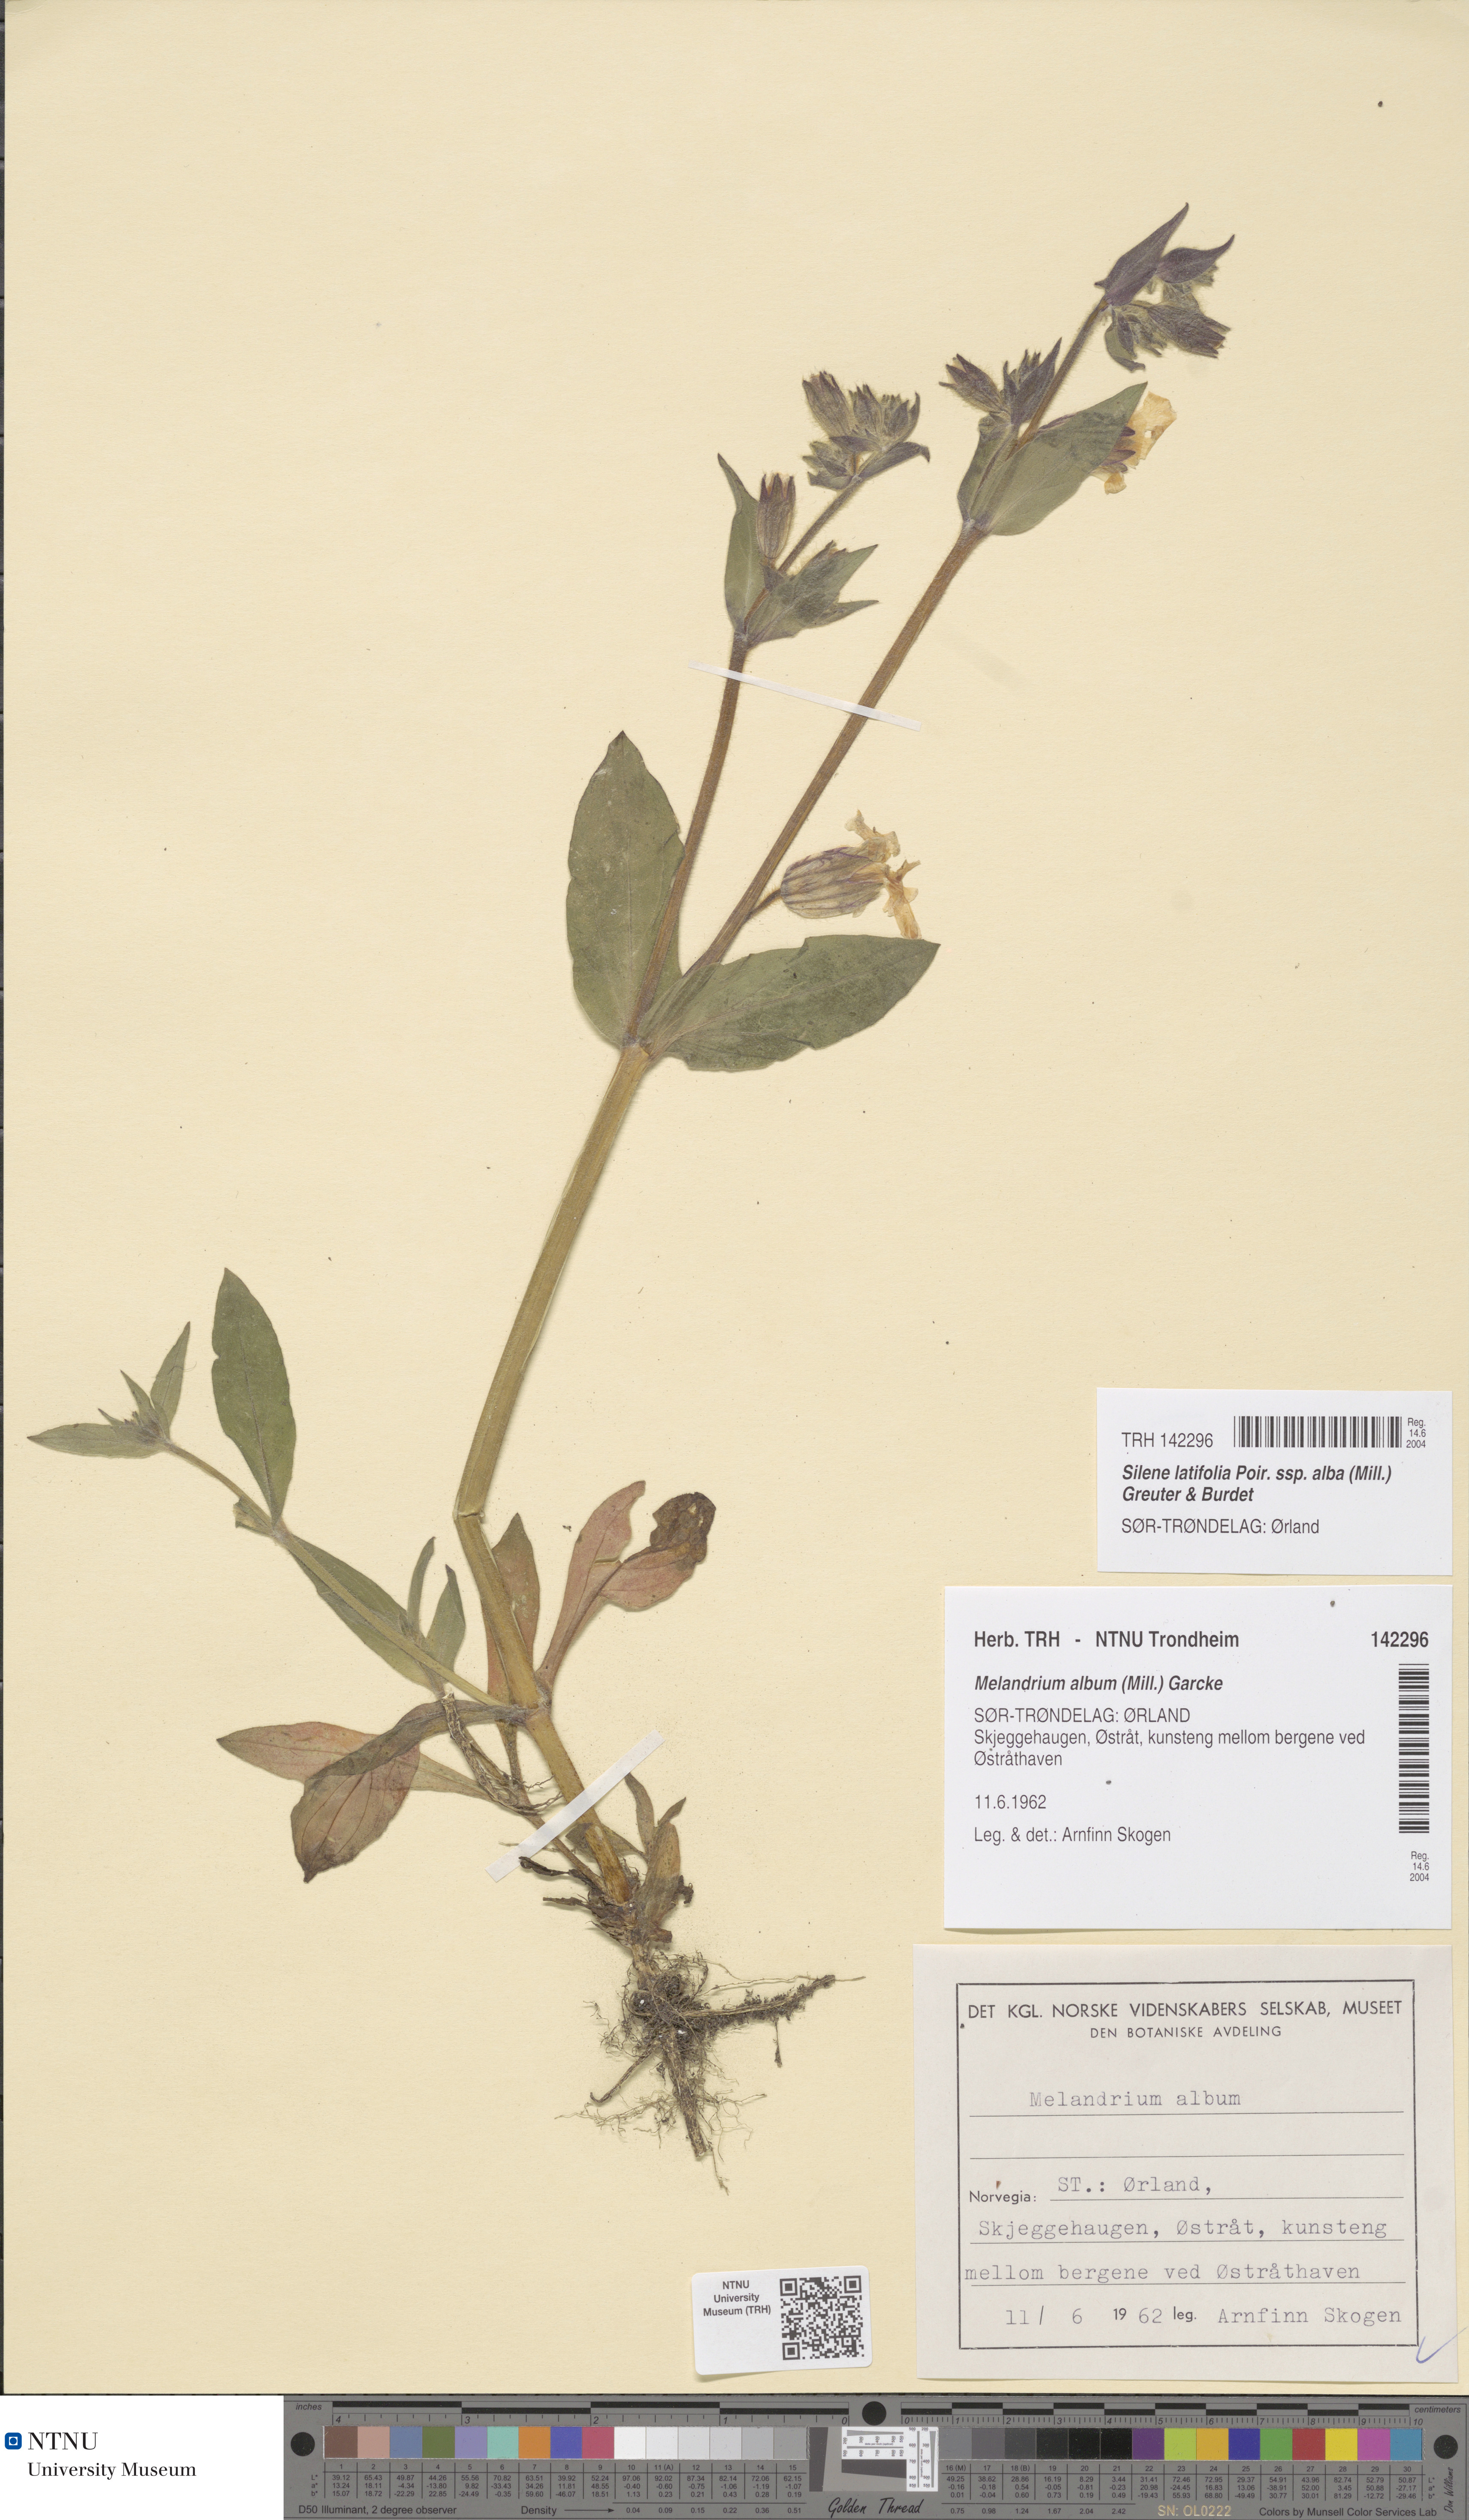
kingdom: Plantae
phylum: Tracheophyta
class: Magnoliopsida
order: Caryophyllales
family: Caryophyllaceae
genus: Silene
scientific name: Silene latifolia
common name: White campion
